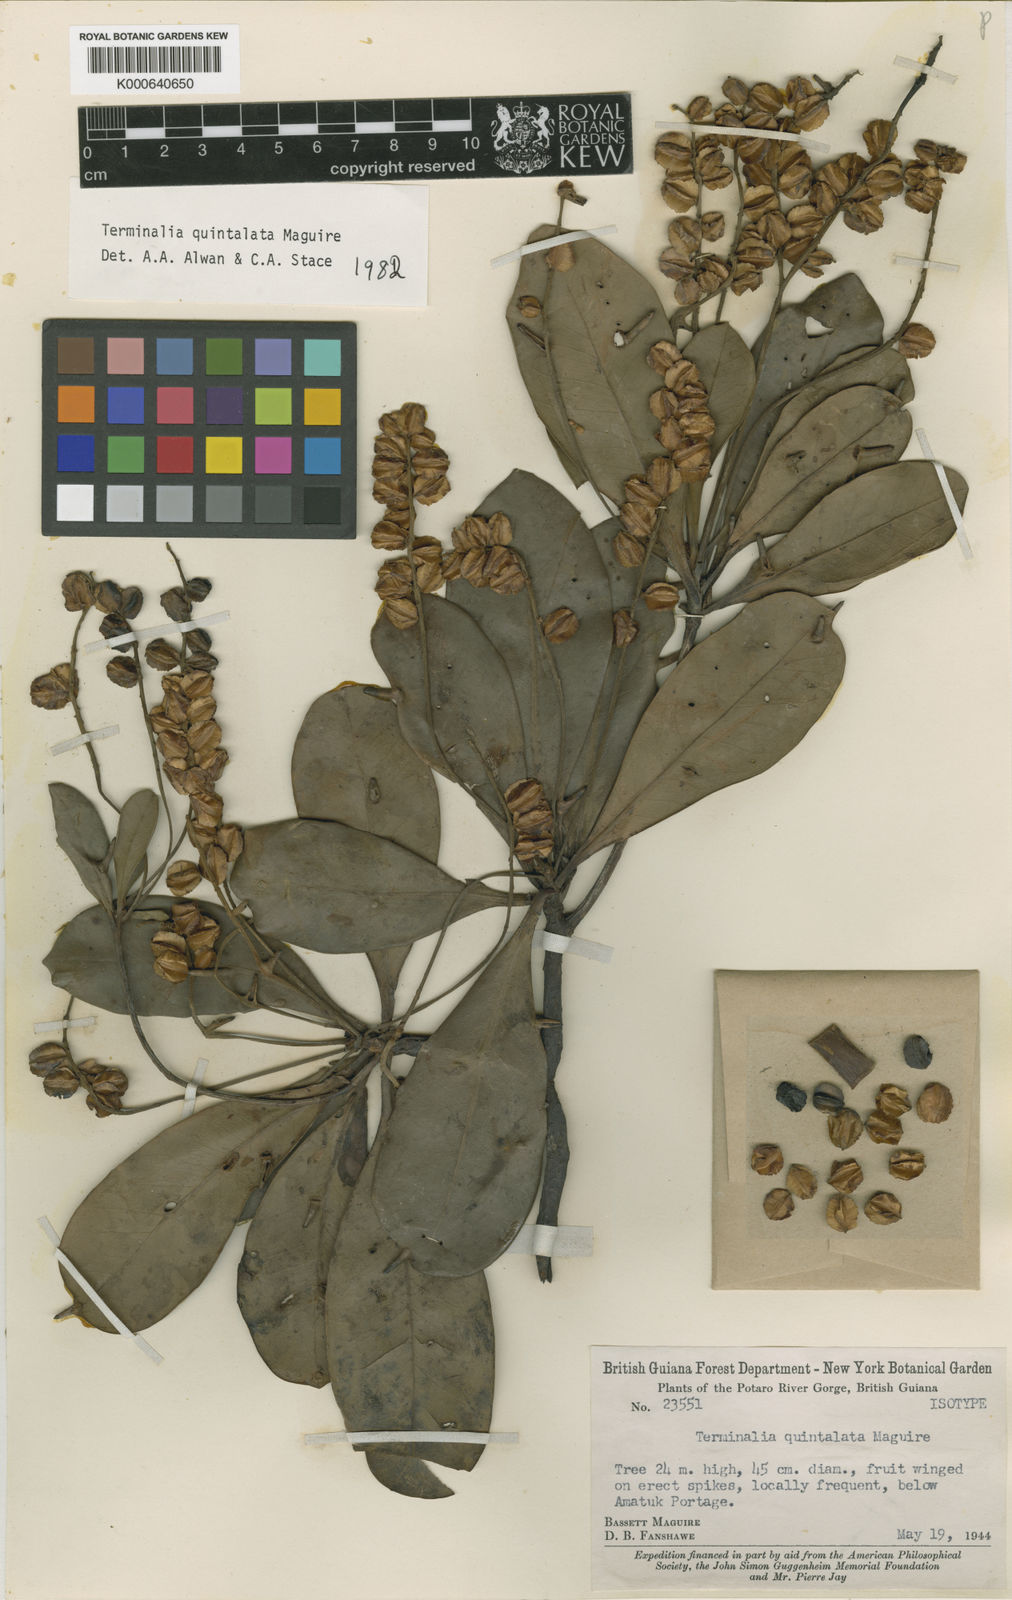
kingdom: Plantae
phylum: Tracheophyta
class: Magnoliopsida
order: Myrtales
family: Combretaceae
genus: Terminalia
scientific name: Terminalia quintalata
